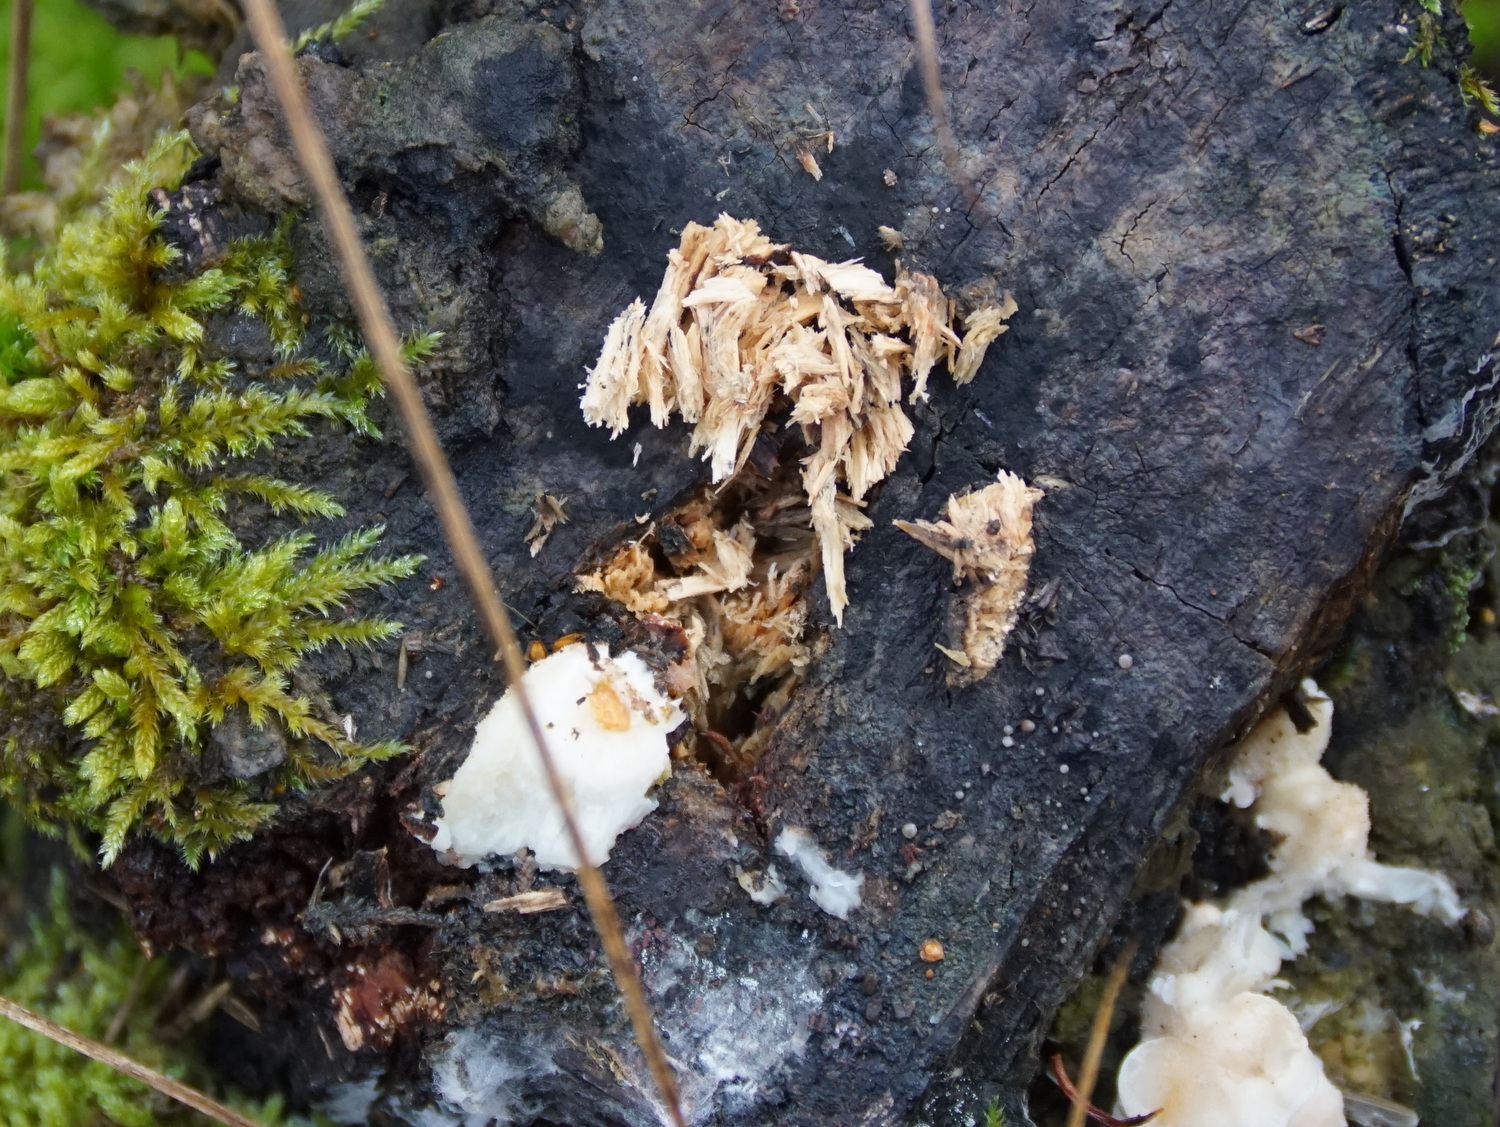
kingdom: Fungi
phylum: Basidiomycota
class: Agaricomycetes
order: Polyporales
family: Incrustoporiaceae
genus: Tyromyces
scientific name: Tyromyces chioneus
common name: stor blødporesvamp
